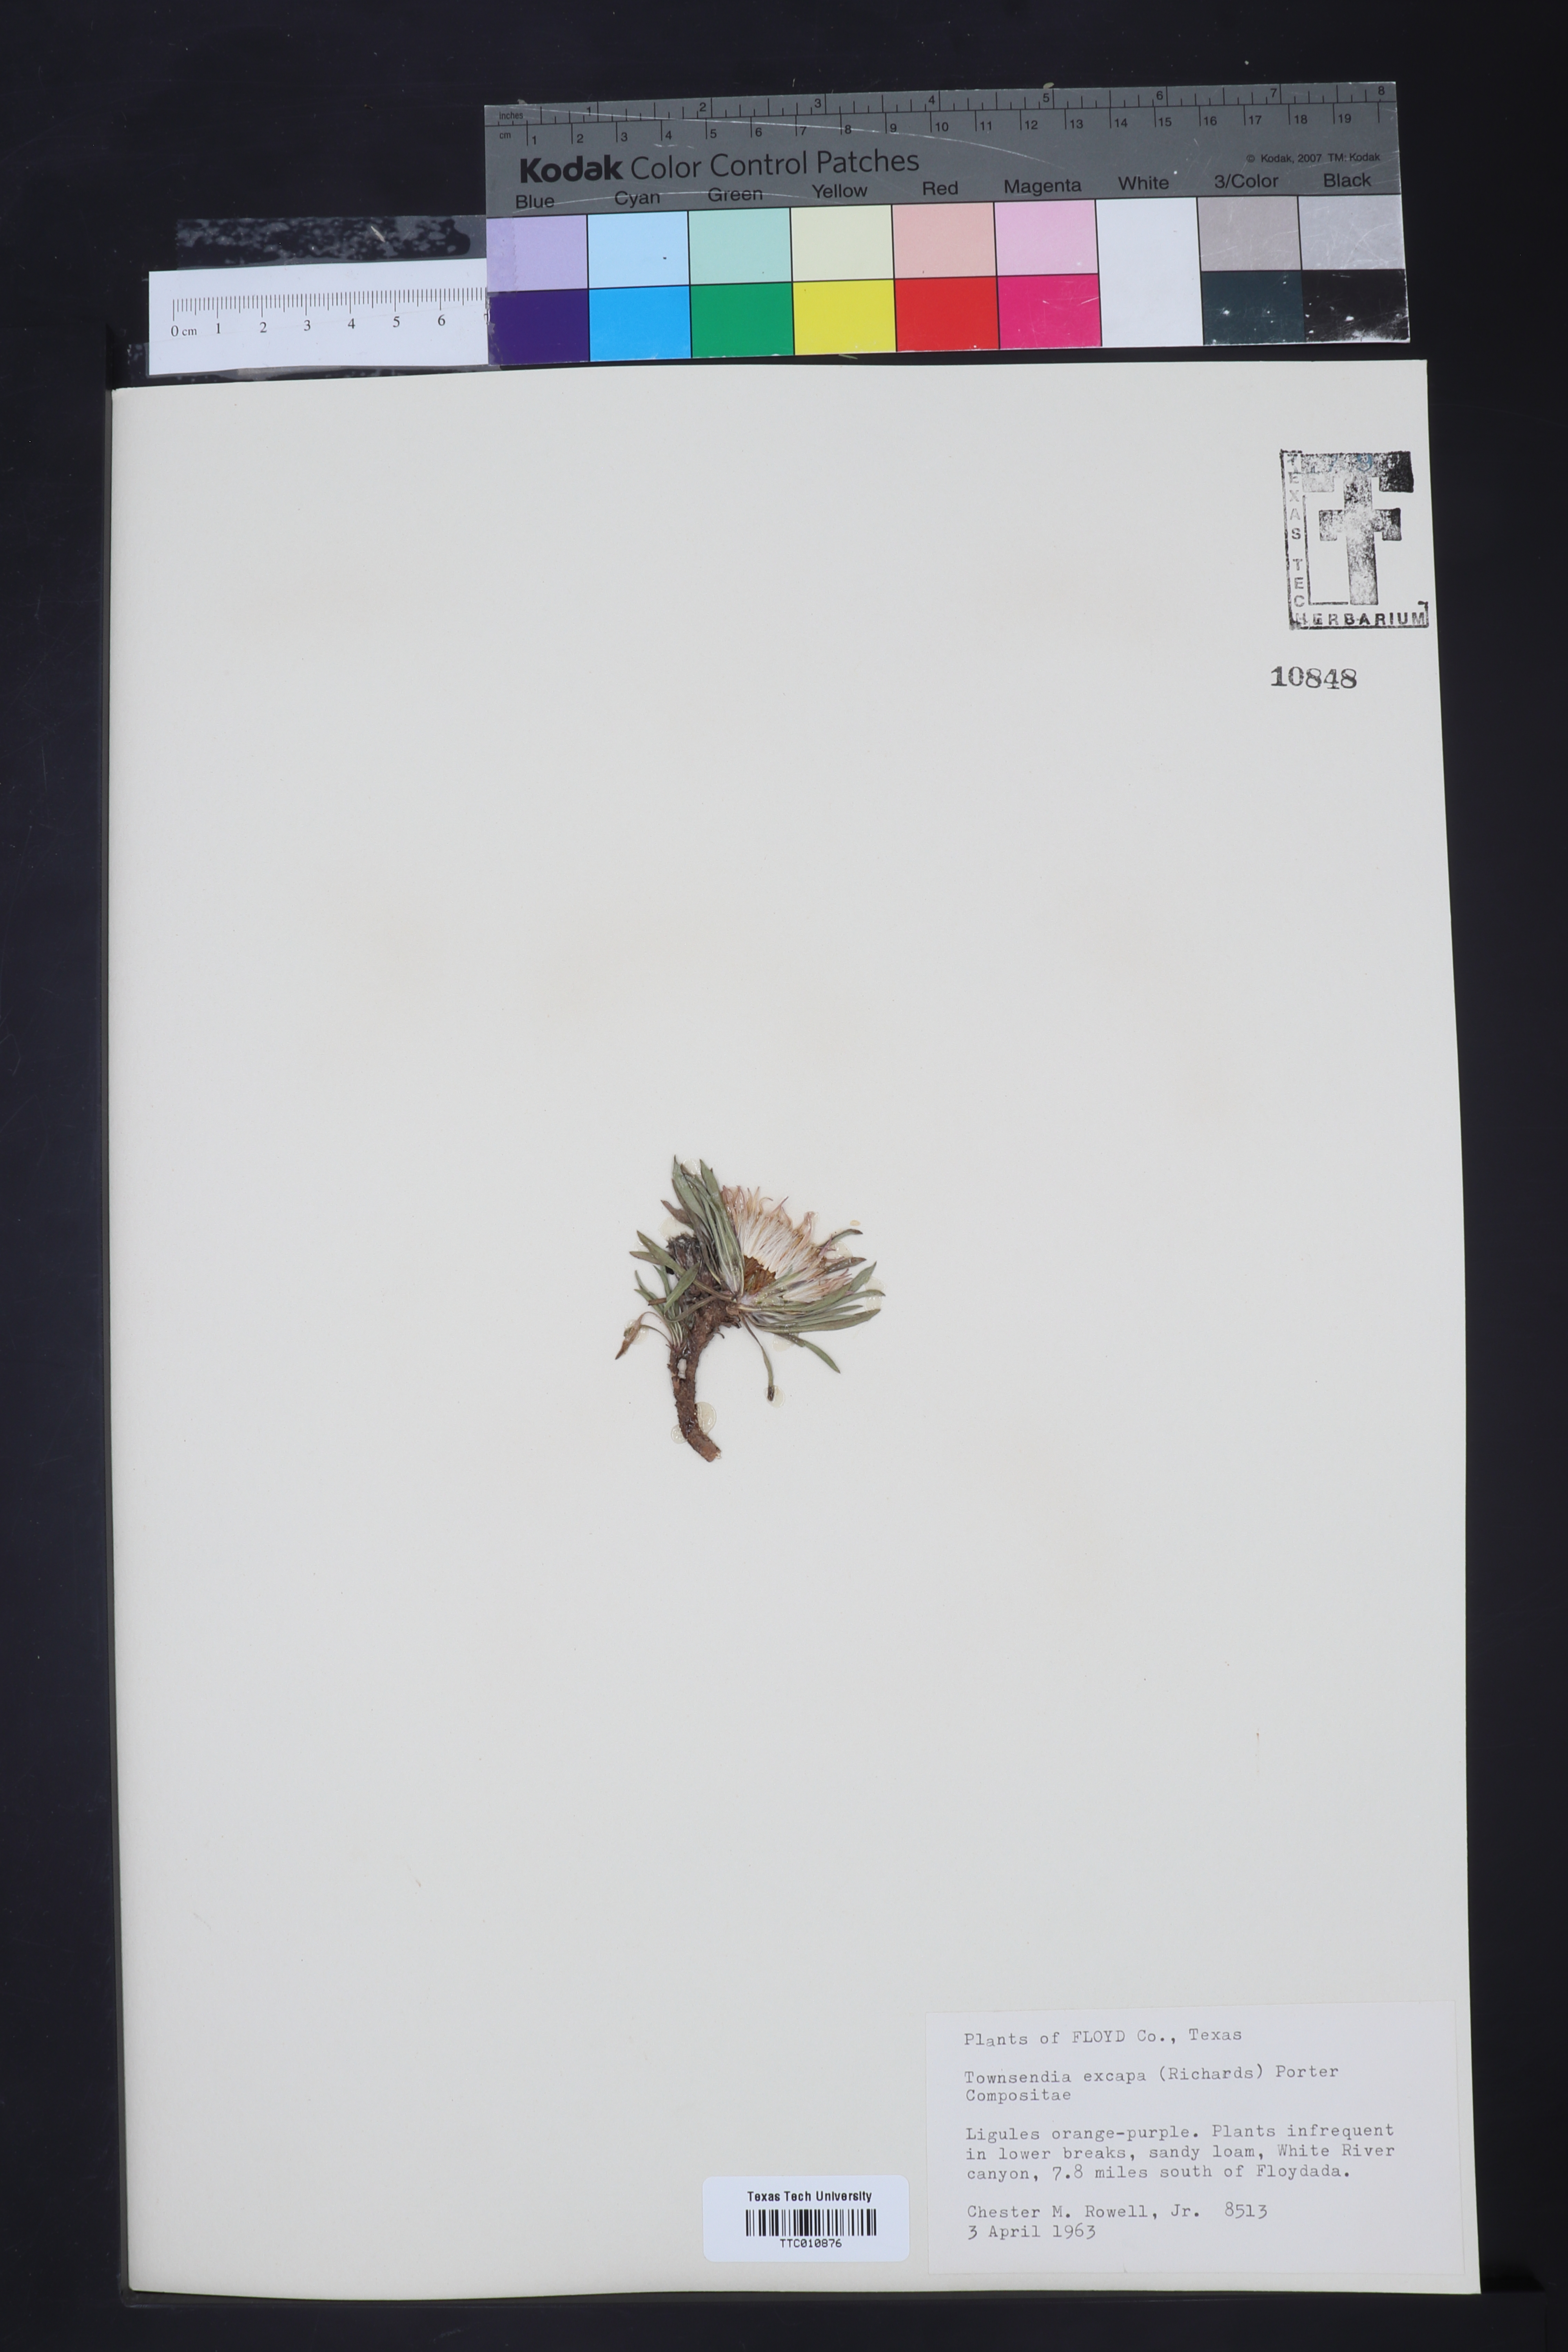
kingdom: Plantae
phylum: Tracheophyta
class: Magnoliopsida
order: Asterales
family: Asteraceae
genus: Townsendia
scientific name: Townsendia exscapa
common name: Dwarf townsendia
